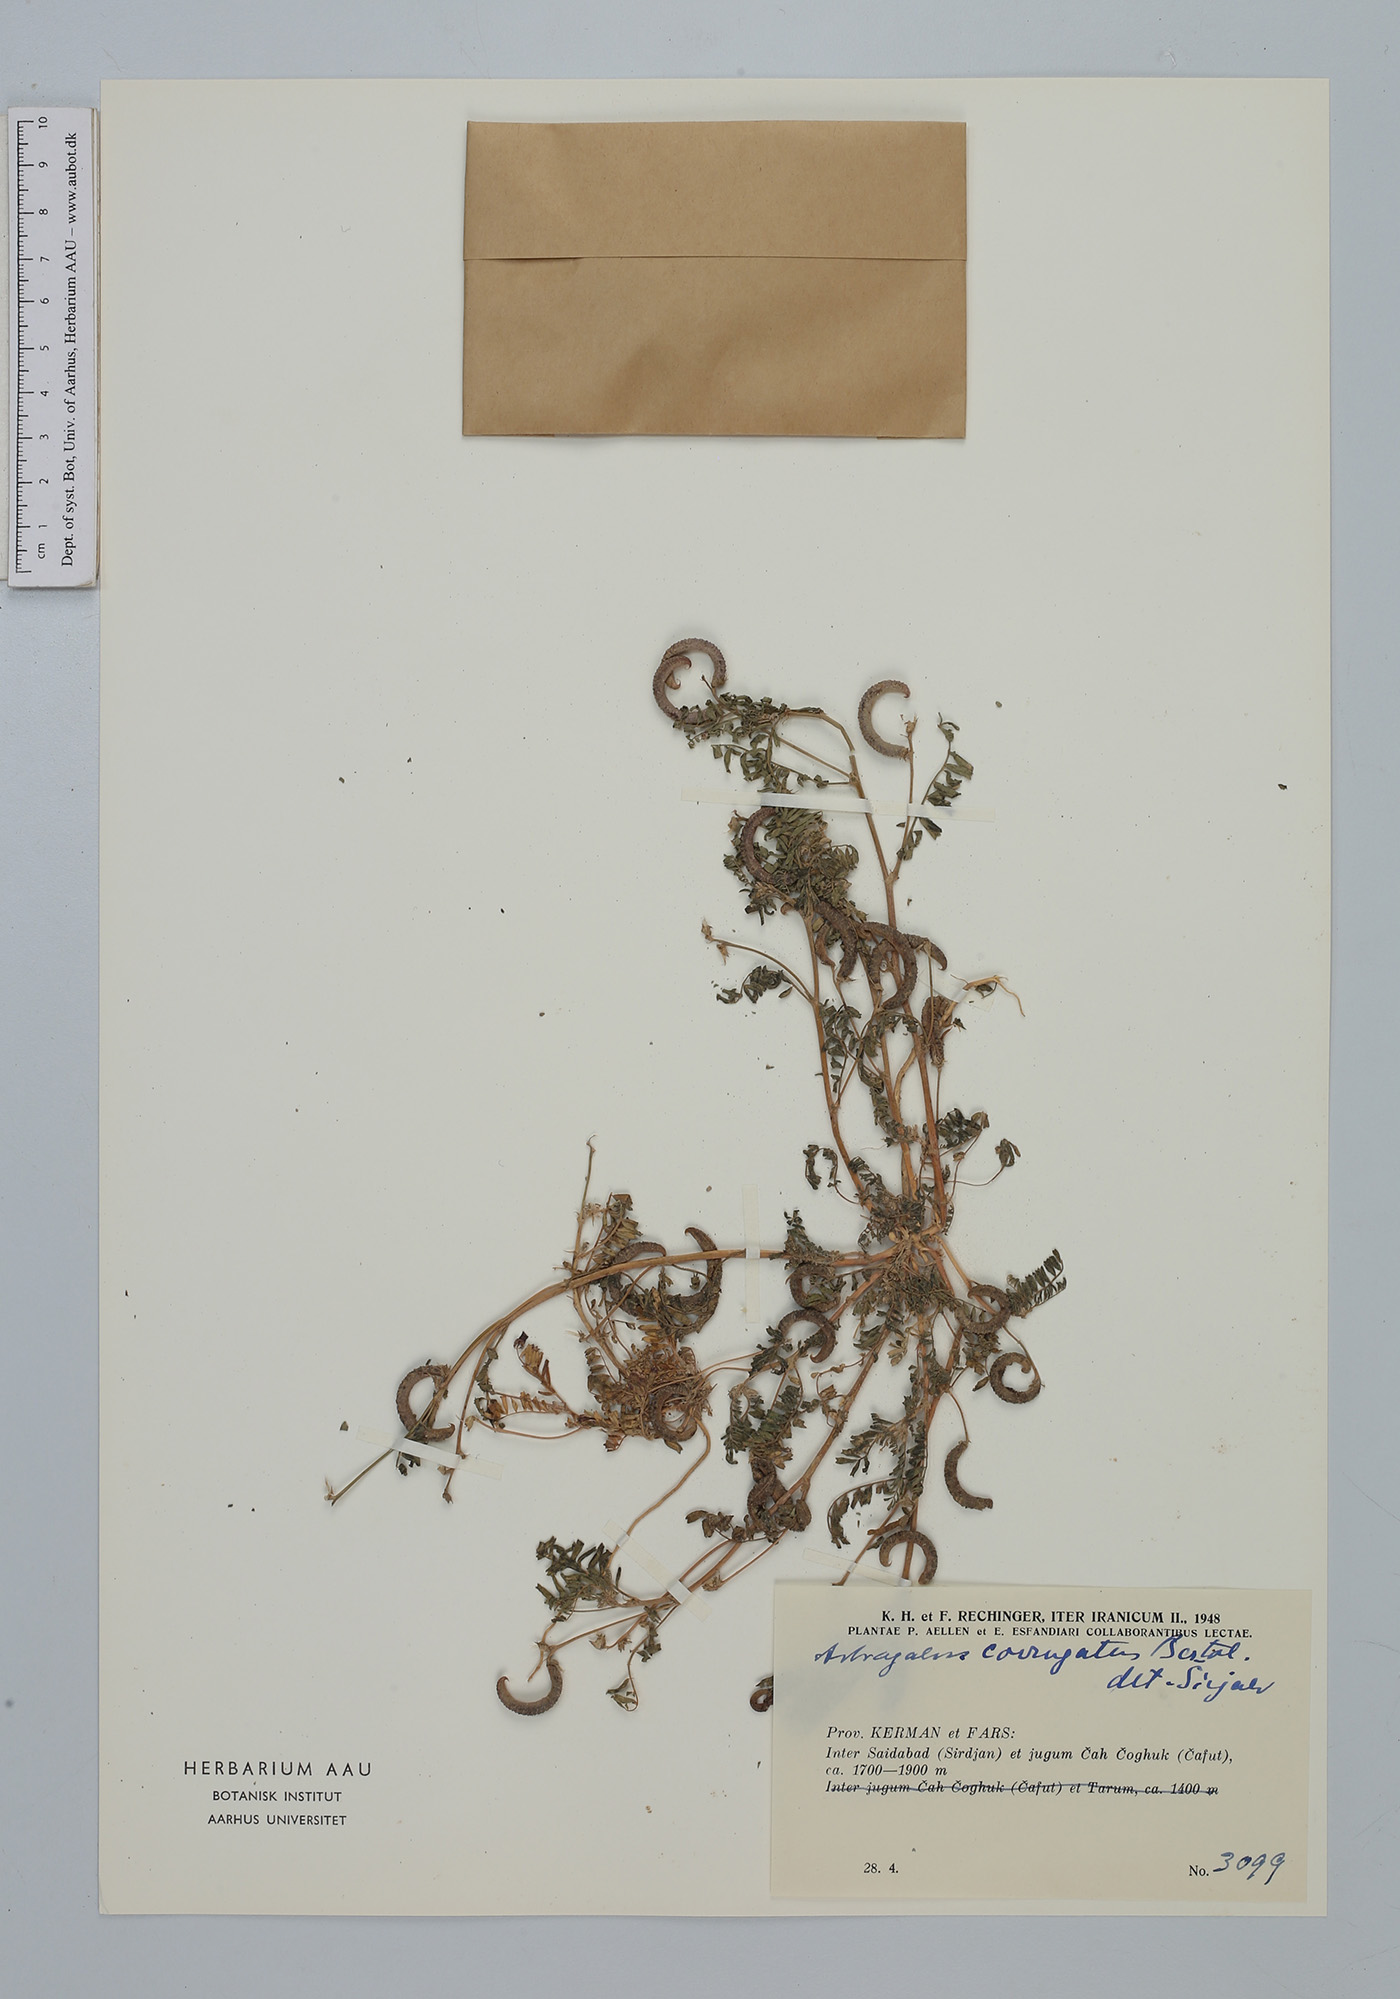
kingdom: Plantae
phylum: Tracheophyta
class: Magnoliopsida
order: Fabales
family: Fabaceae
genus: Astragalus
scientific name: Astragalus crenatus
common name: Milk vetch
